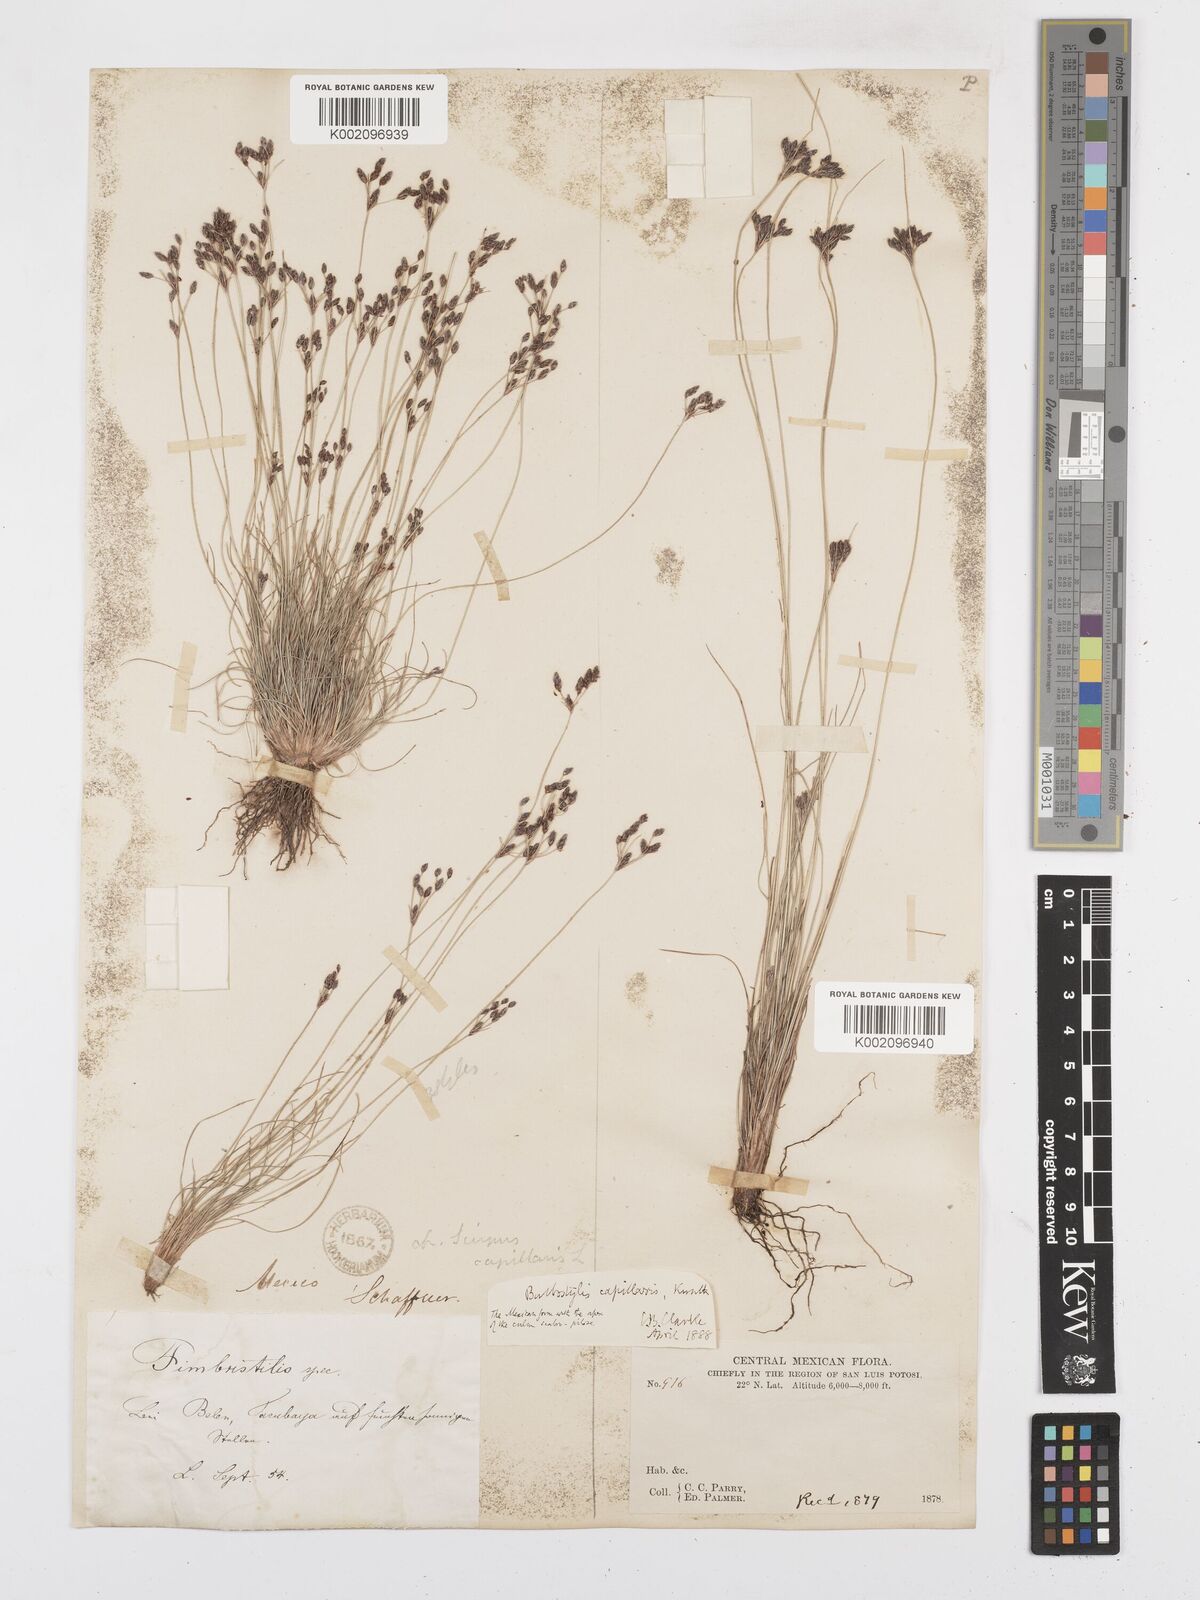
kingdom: Plantae
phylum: Tracheophyta
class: Liliopsida
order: Poales
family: Cyperaceae
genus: Bulbostylis
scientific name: Bulbostylis capillaris
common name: Densetuft hairsedge
